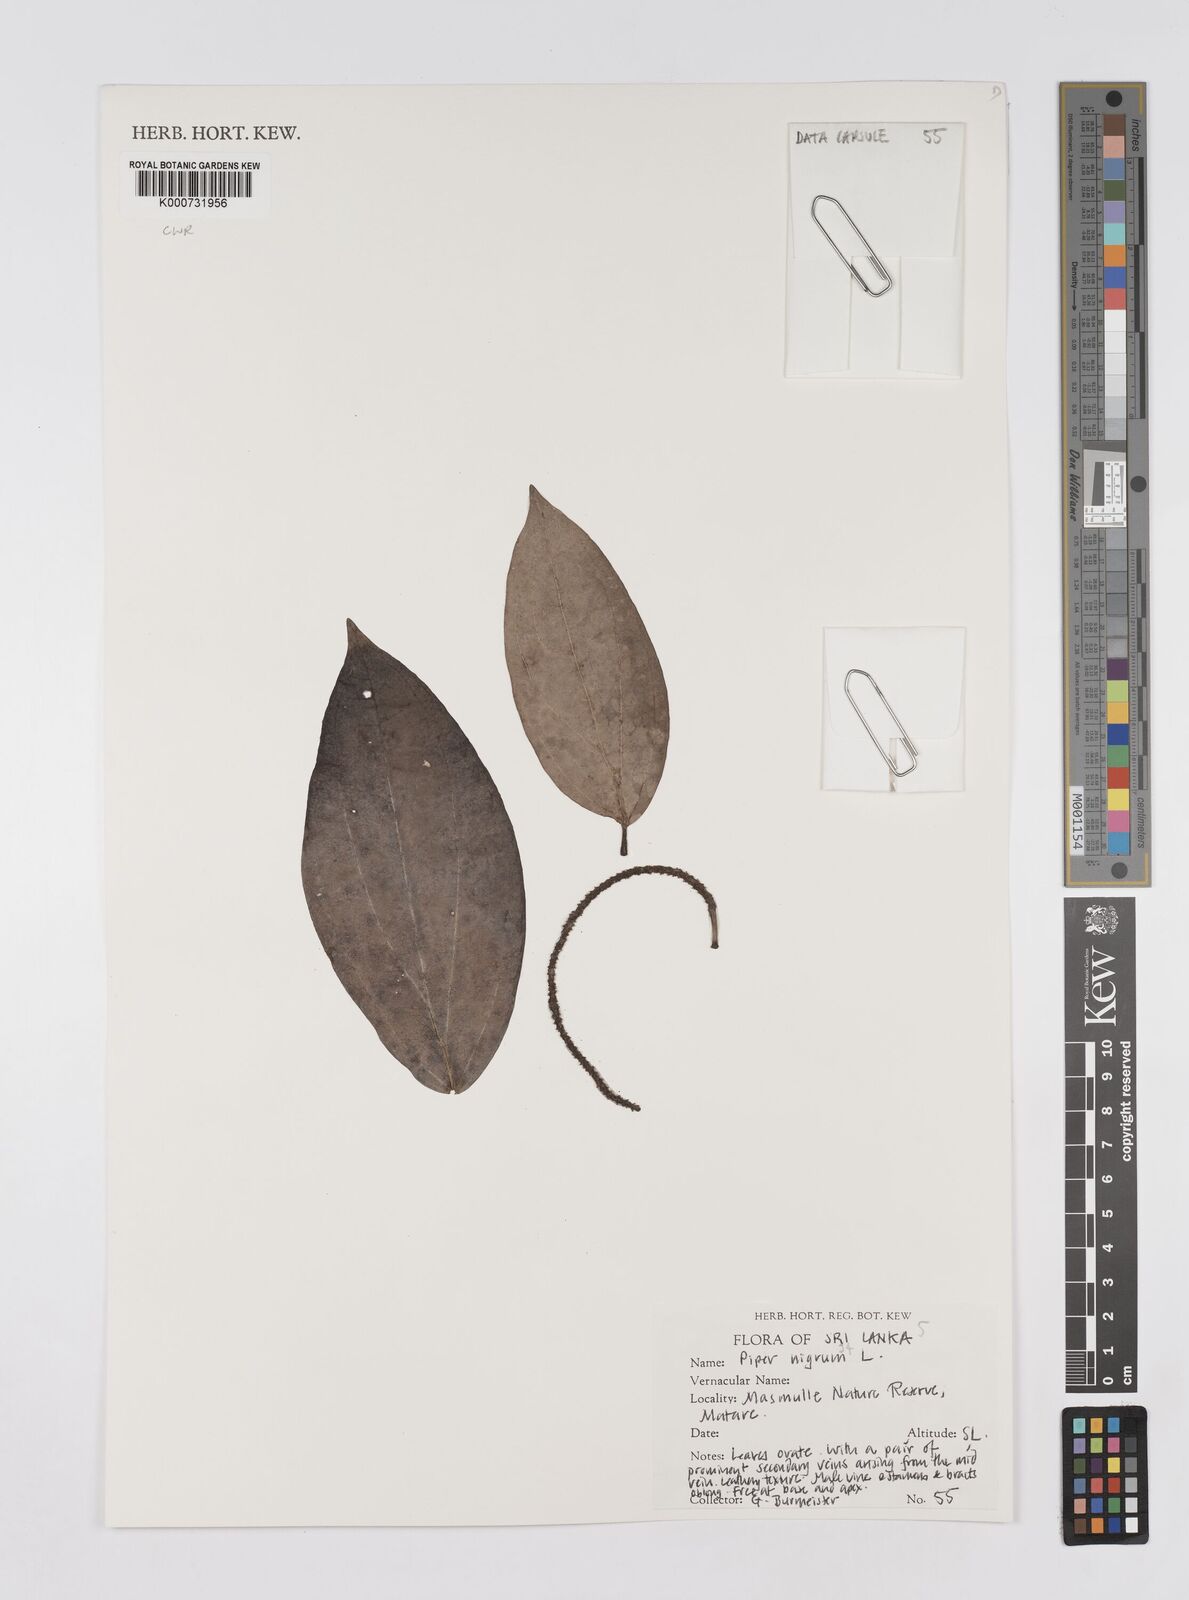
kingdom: Plantae
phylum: Tracheophyta
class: Magnoliopsida
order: Piperales
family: Piperaceae
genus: Piper
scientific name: Piper nigrum
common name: Black pepper
